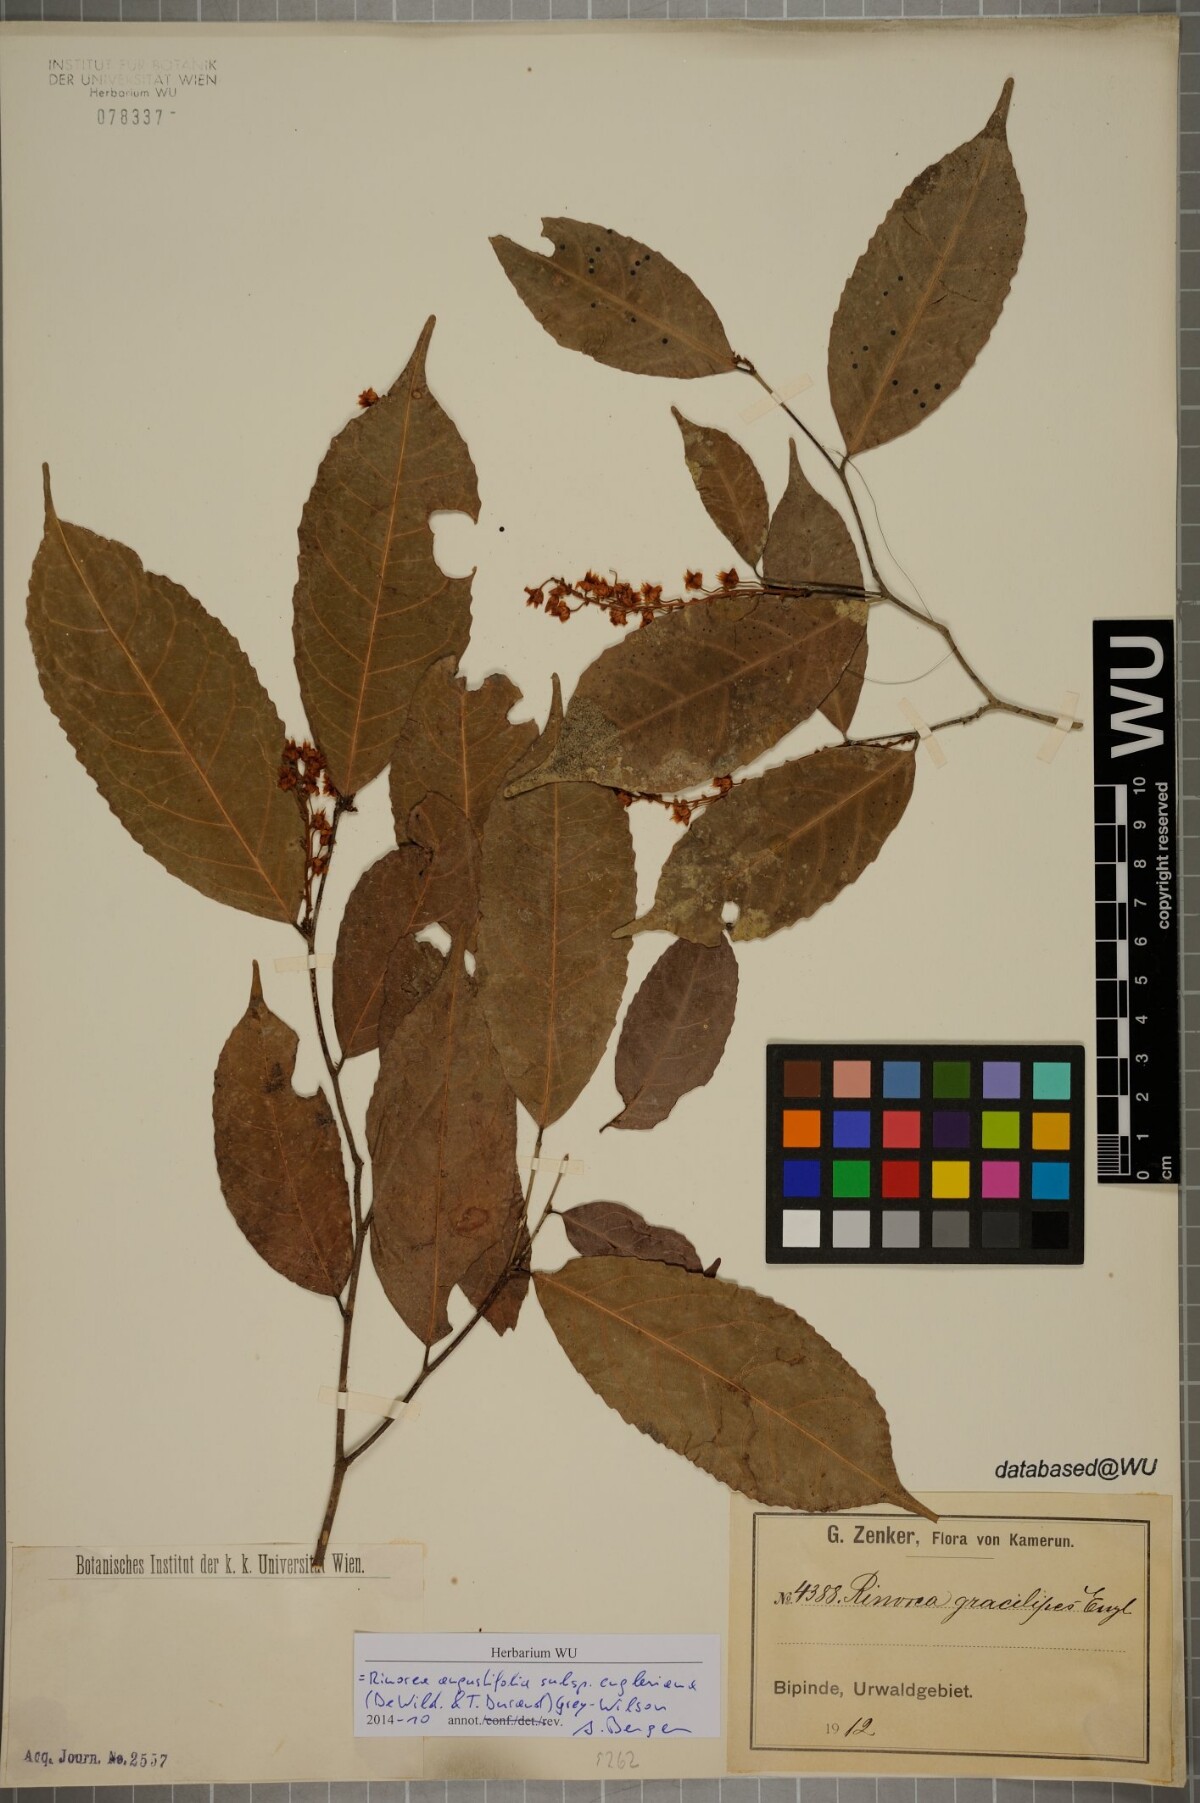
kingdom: Plantae
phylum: Tracheophyta
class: Magnoliopsida
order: Malpighiales
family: Violaceae
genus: Rinorea
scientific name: Rinorea angustifolia
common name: White violet-bush
